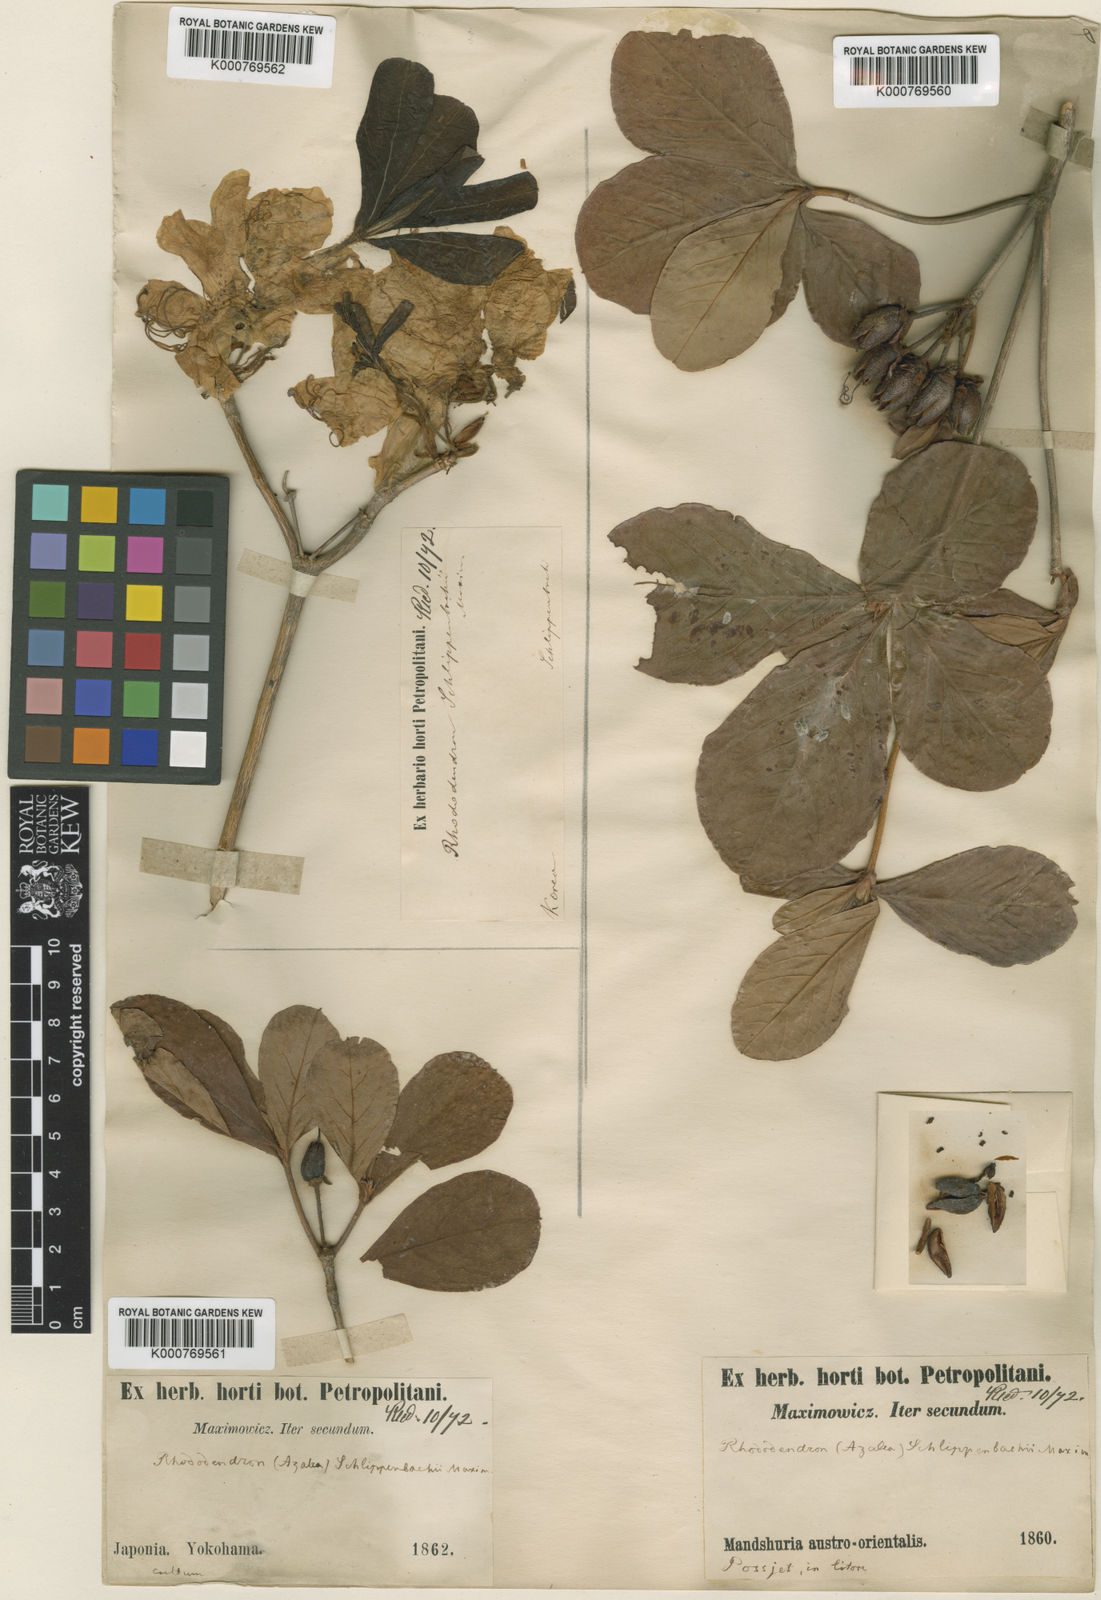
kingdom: Plantae
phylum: Tracheophyta
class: Magnoliopsida
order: Ericales
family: Ericaceae
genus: Rhododendron
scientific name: Rhododendron schlippenbachii
